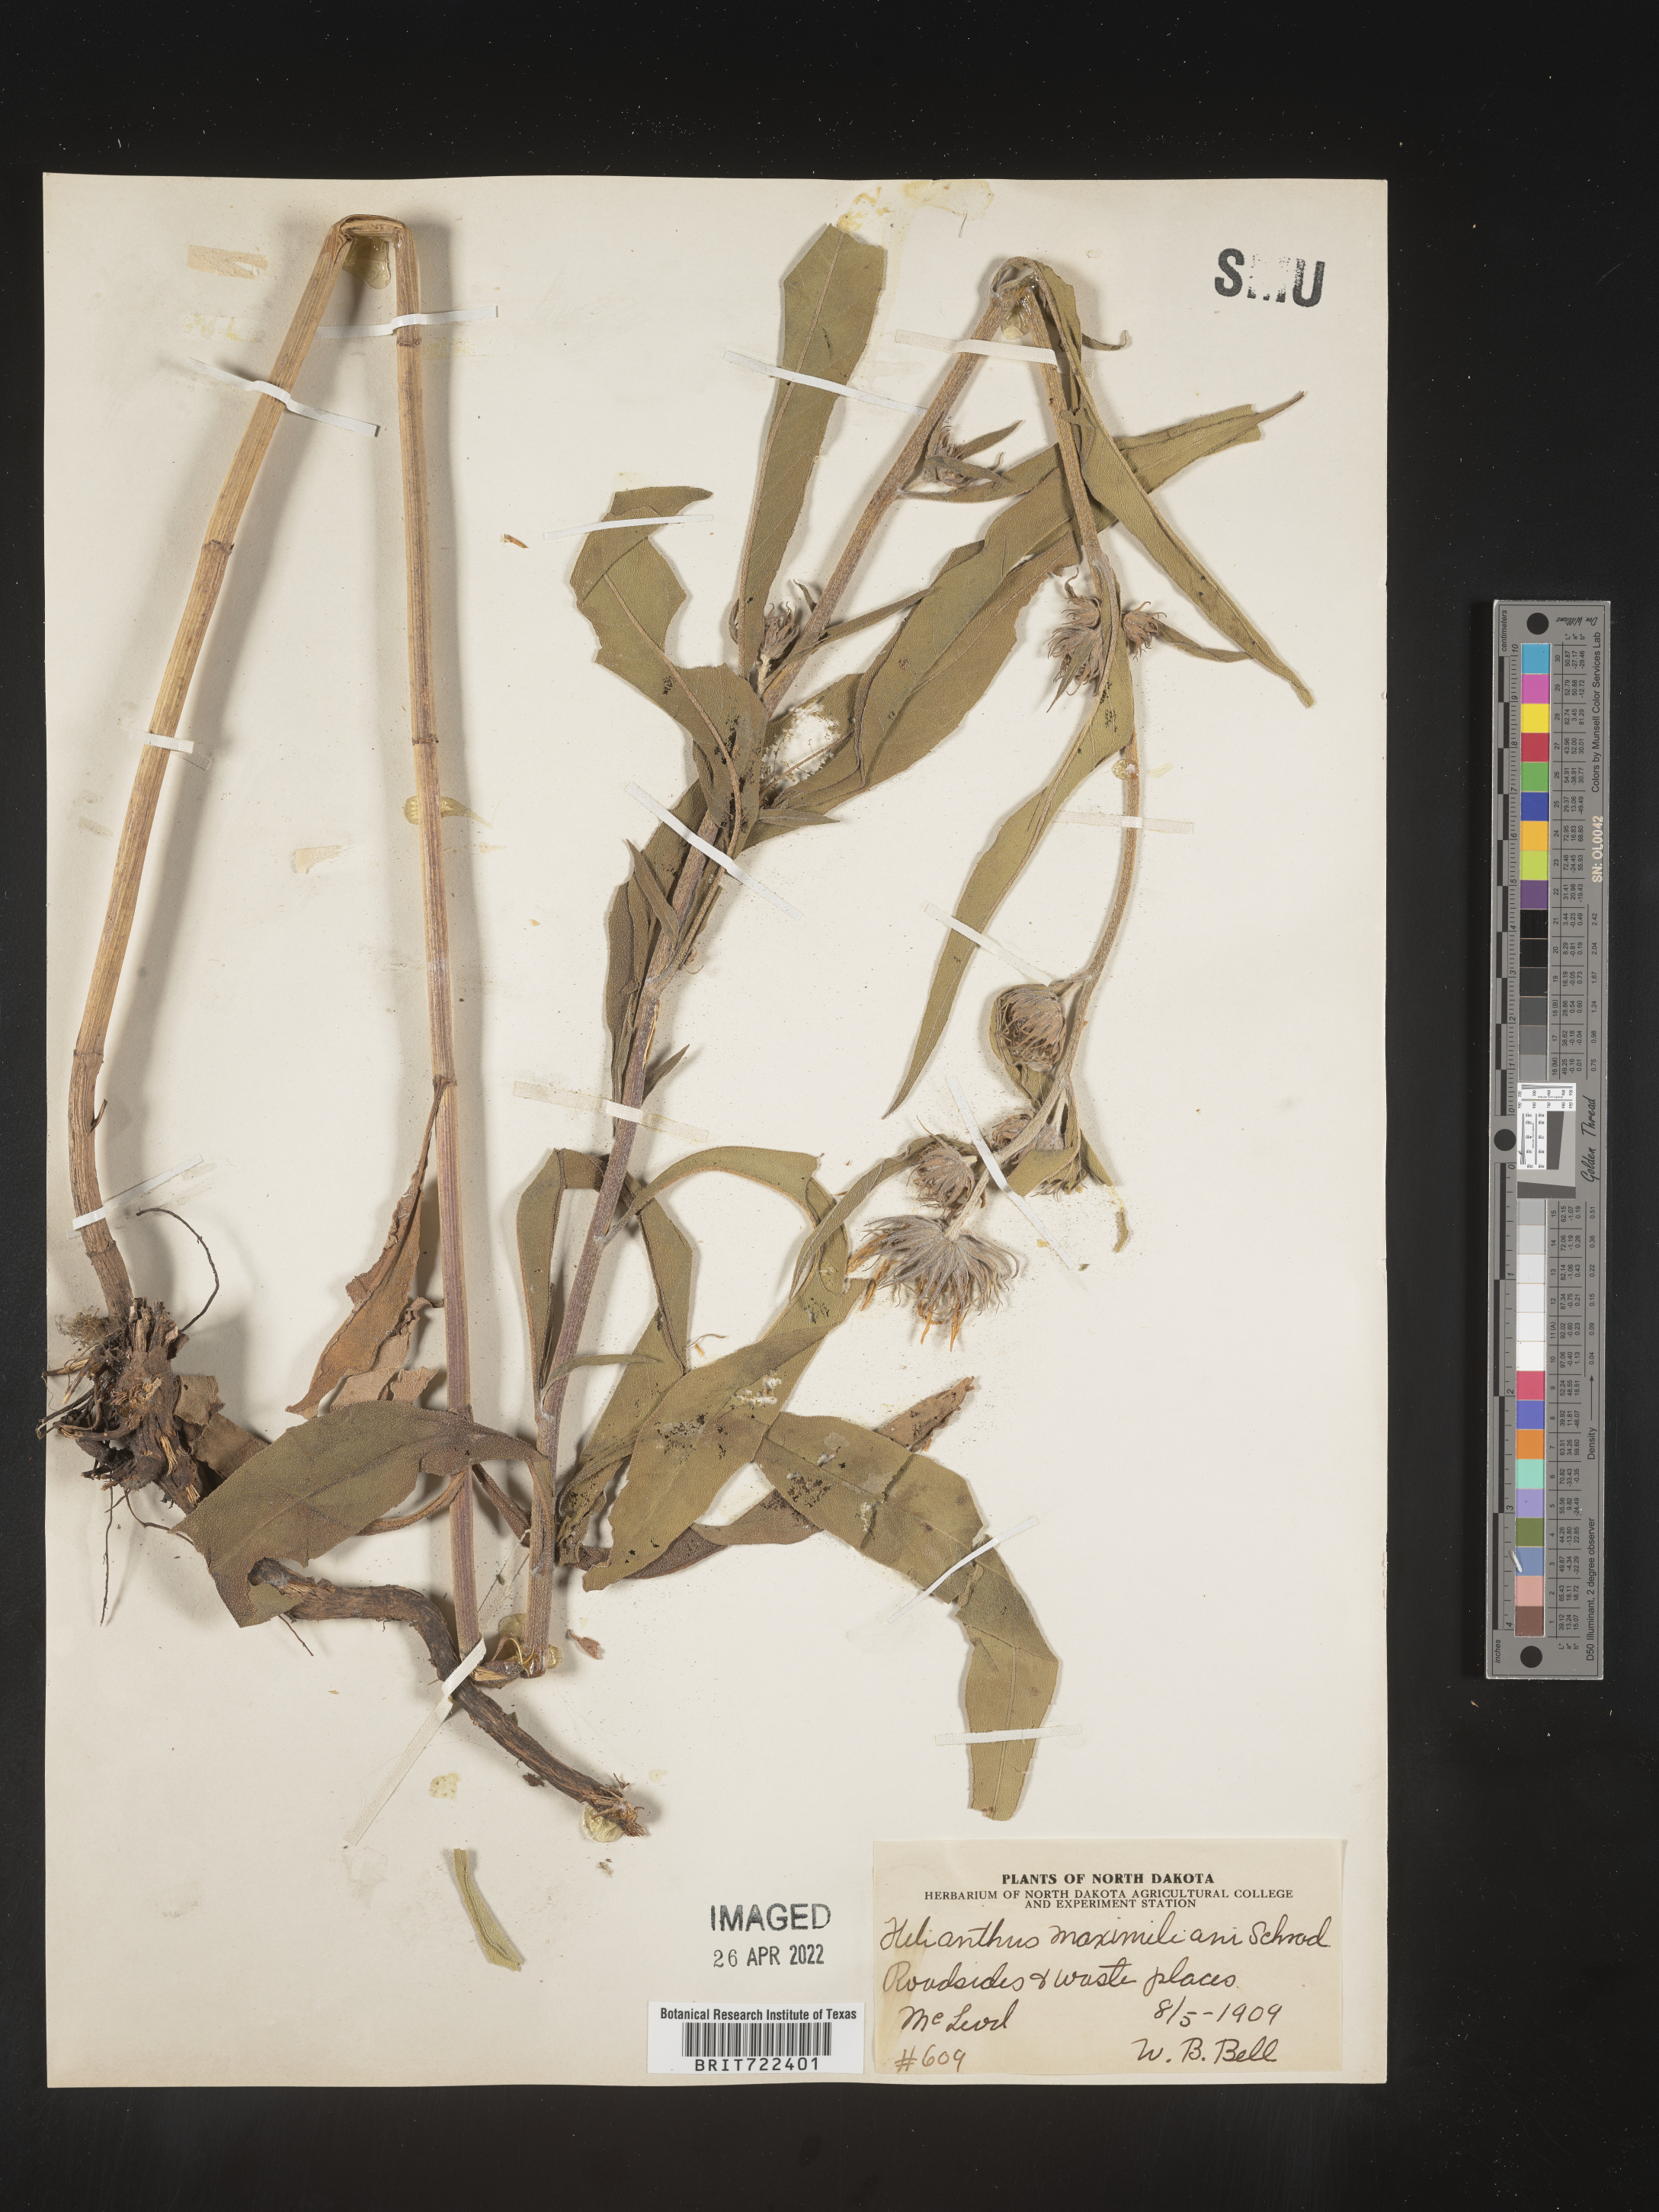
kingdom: Plantae
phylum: Tracheophyta
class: Magnoliopsida
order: Asterales
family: Asteraceae
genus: Helianthus
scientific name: Helianthus maximiliani
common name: Maximilian's sunflower
